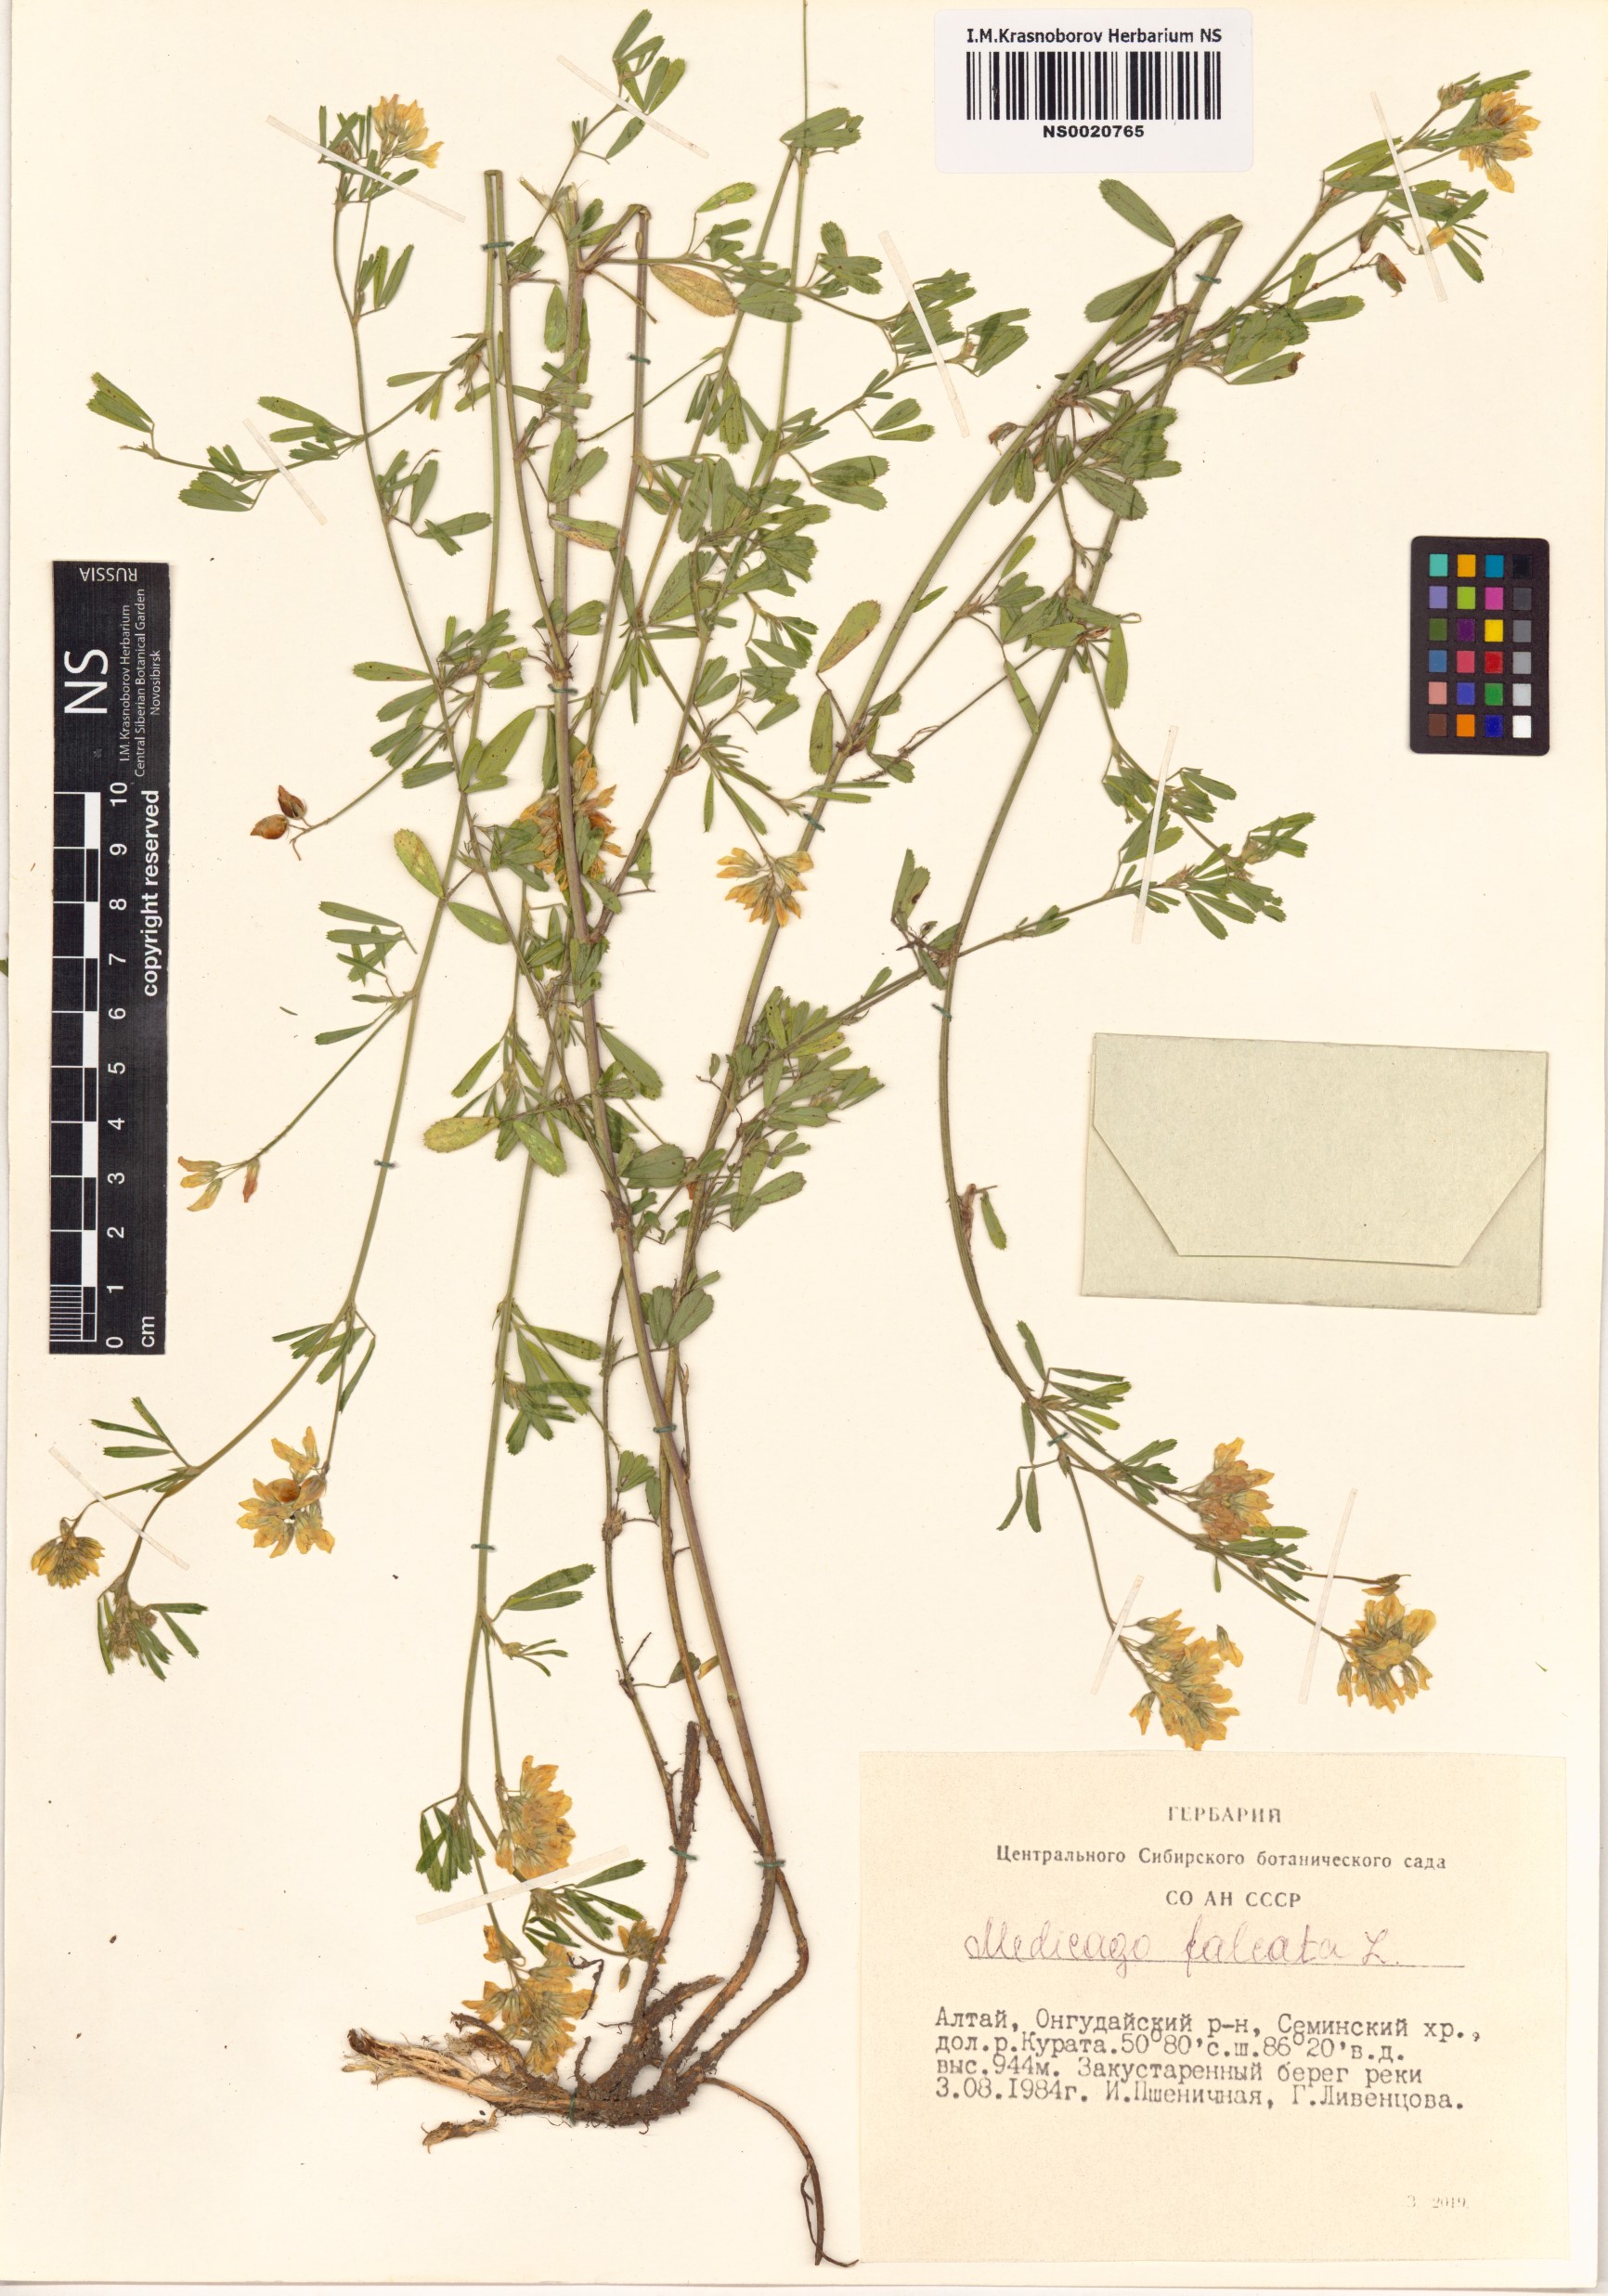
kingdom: Plantae
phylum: Tracheophyta
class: Magnoliopsida
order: Fabales
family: Fabaceae
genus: Medicago
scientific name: Medicago falcata
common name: Sickle medick
